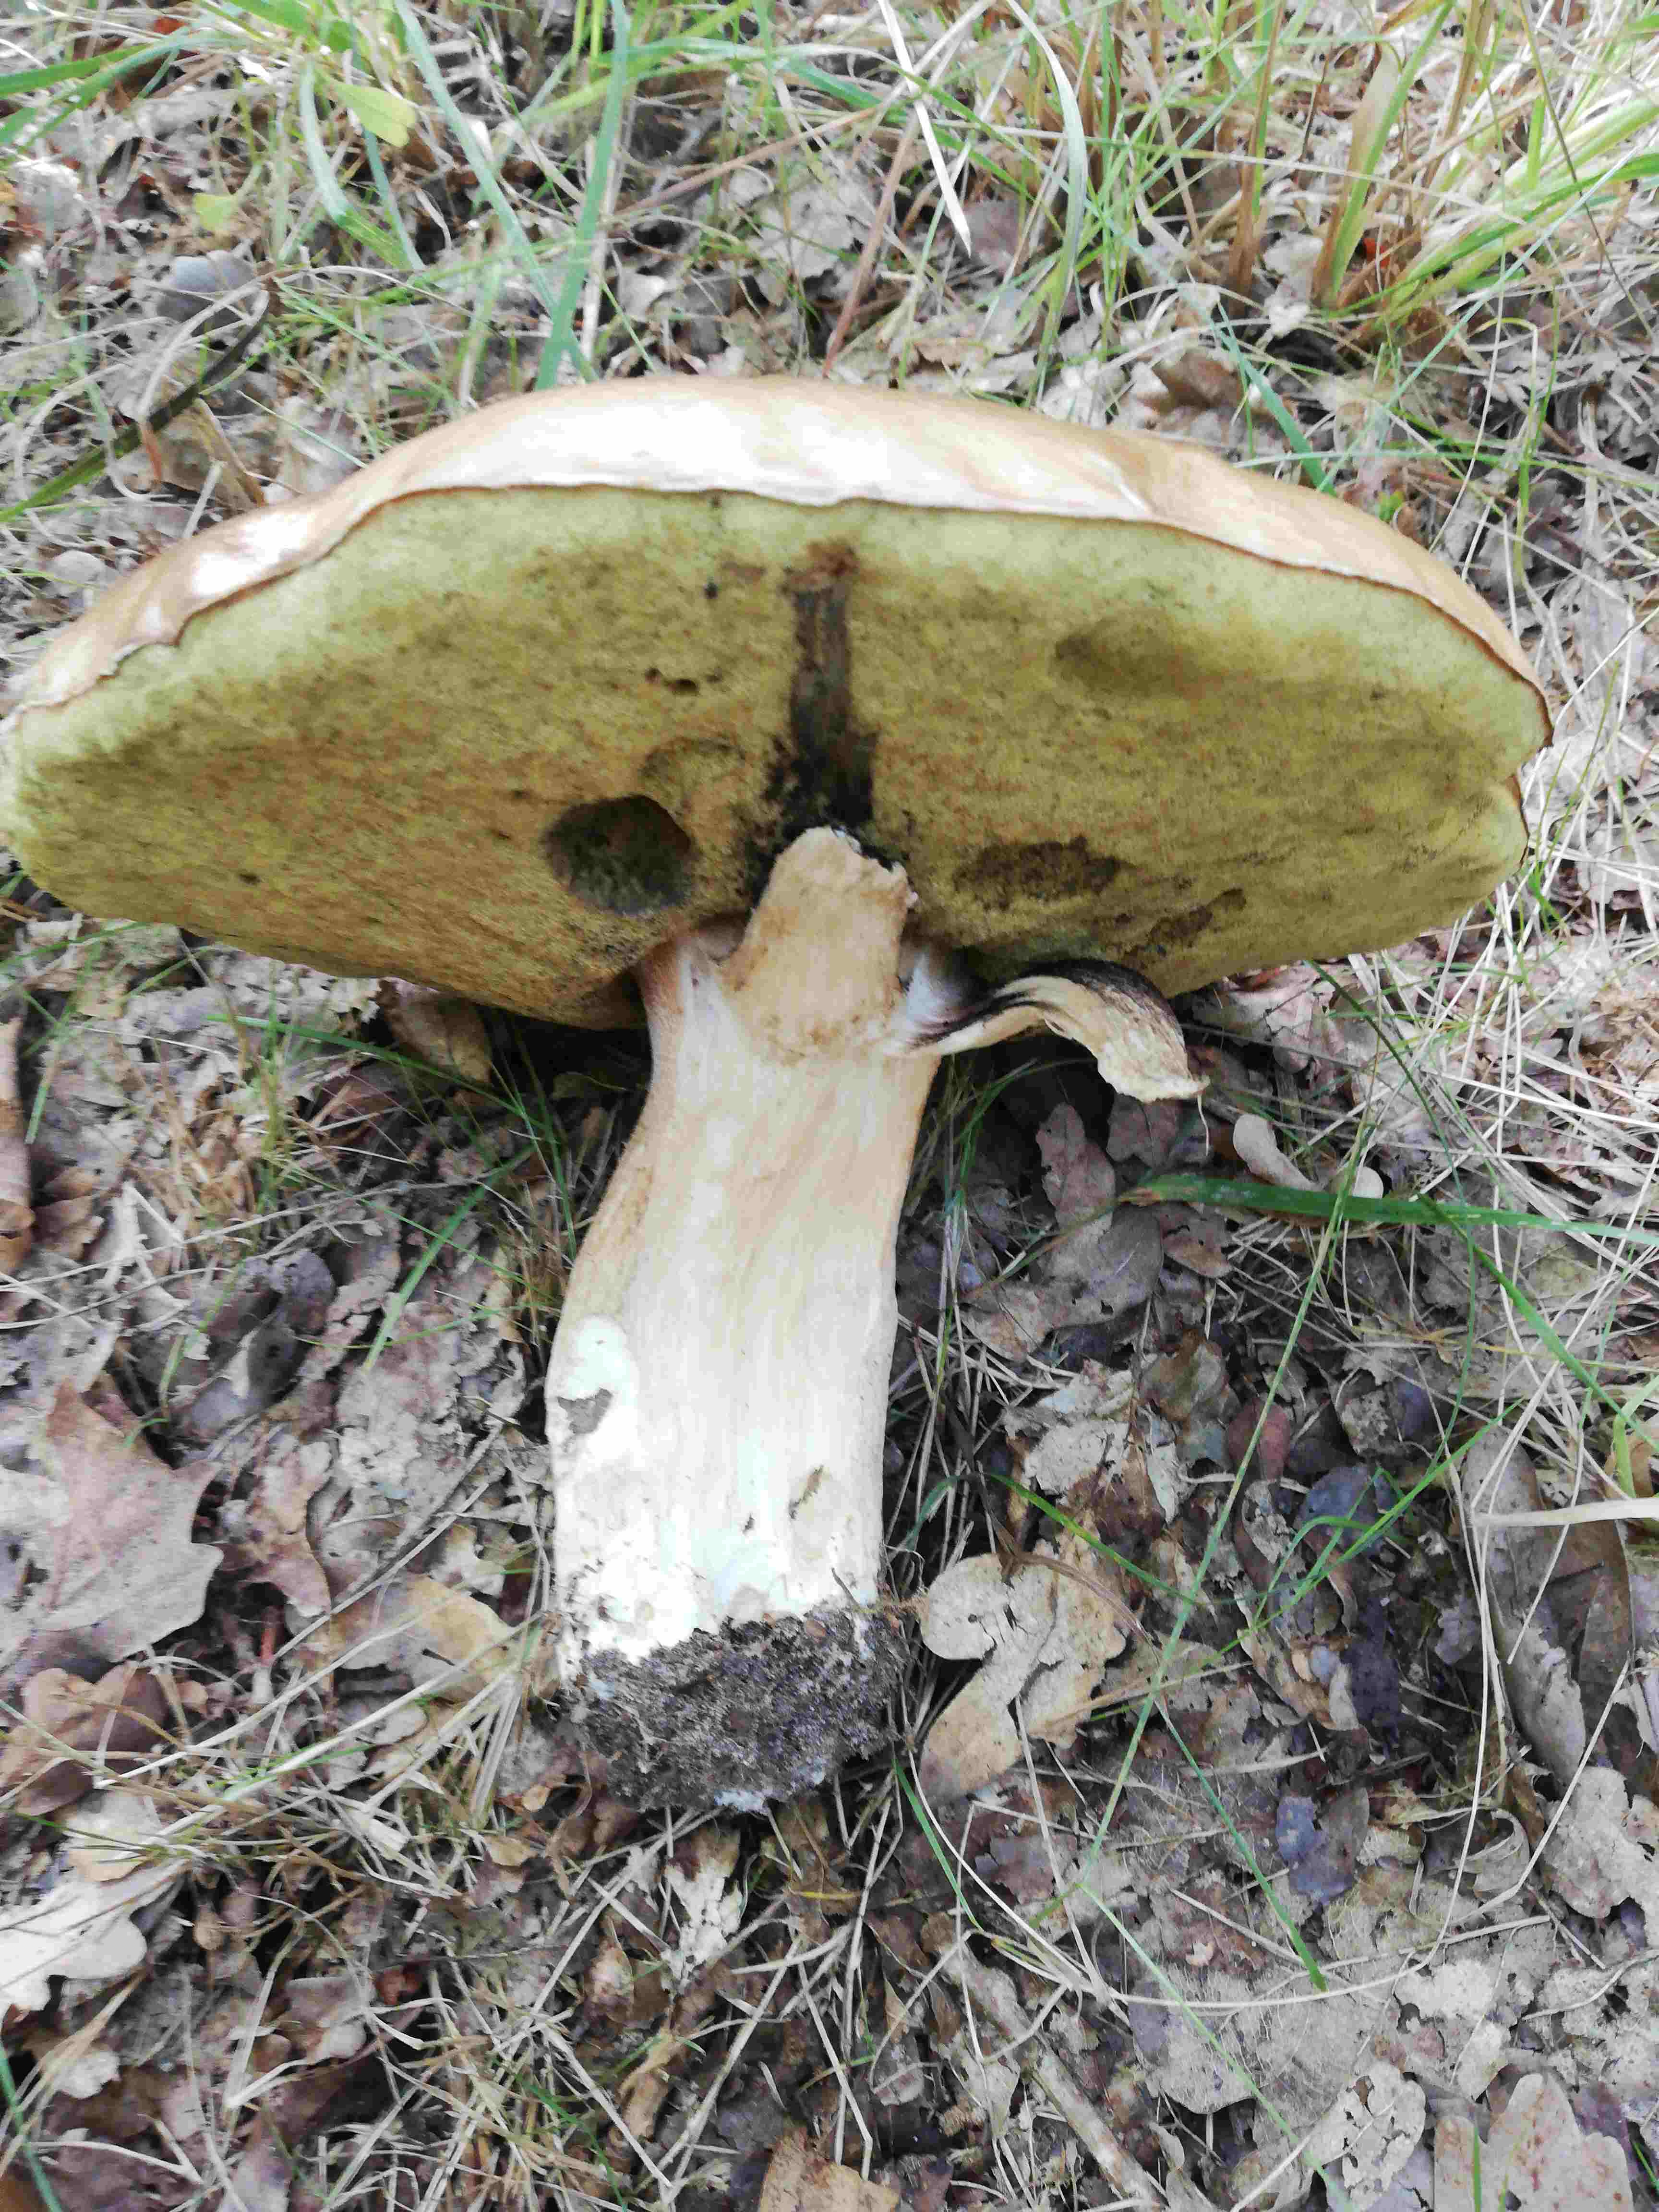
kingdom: Fungi
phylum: Basidiomycota
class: Agaricomycetes
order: Boletales
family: Boletaceae
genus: Boletus
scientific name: Boletus edulis
